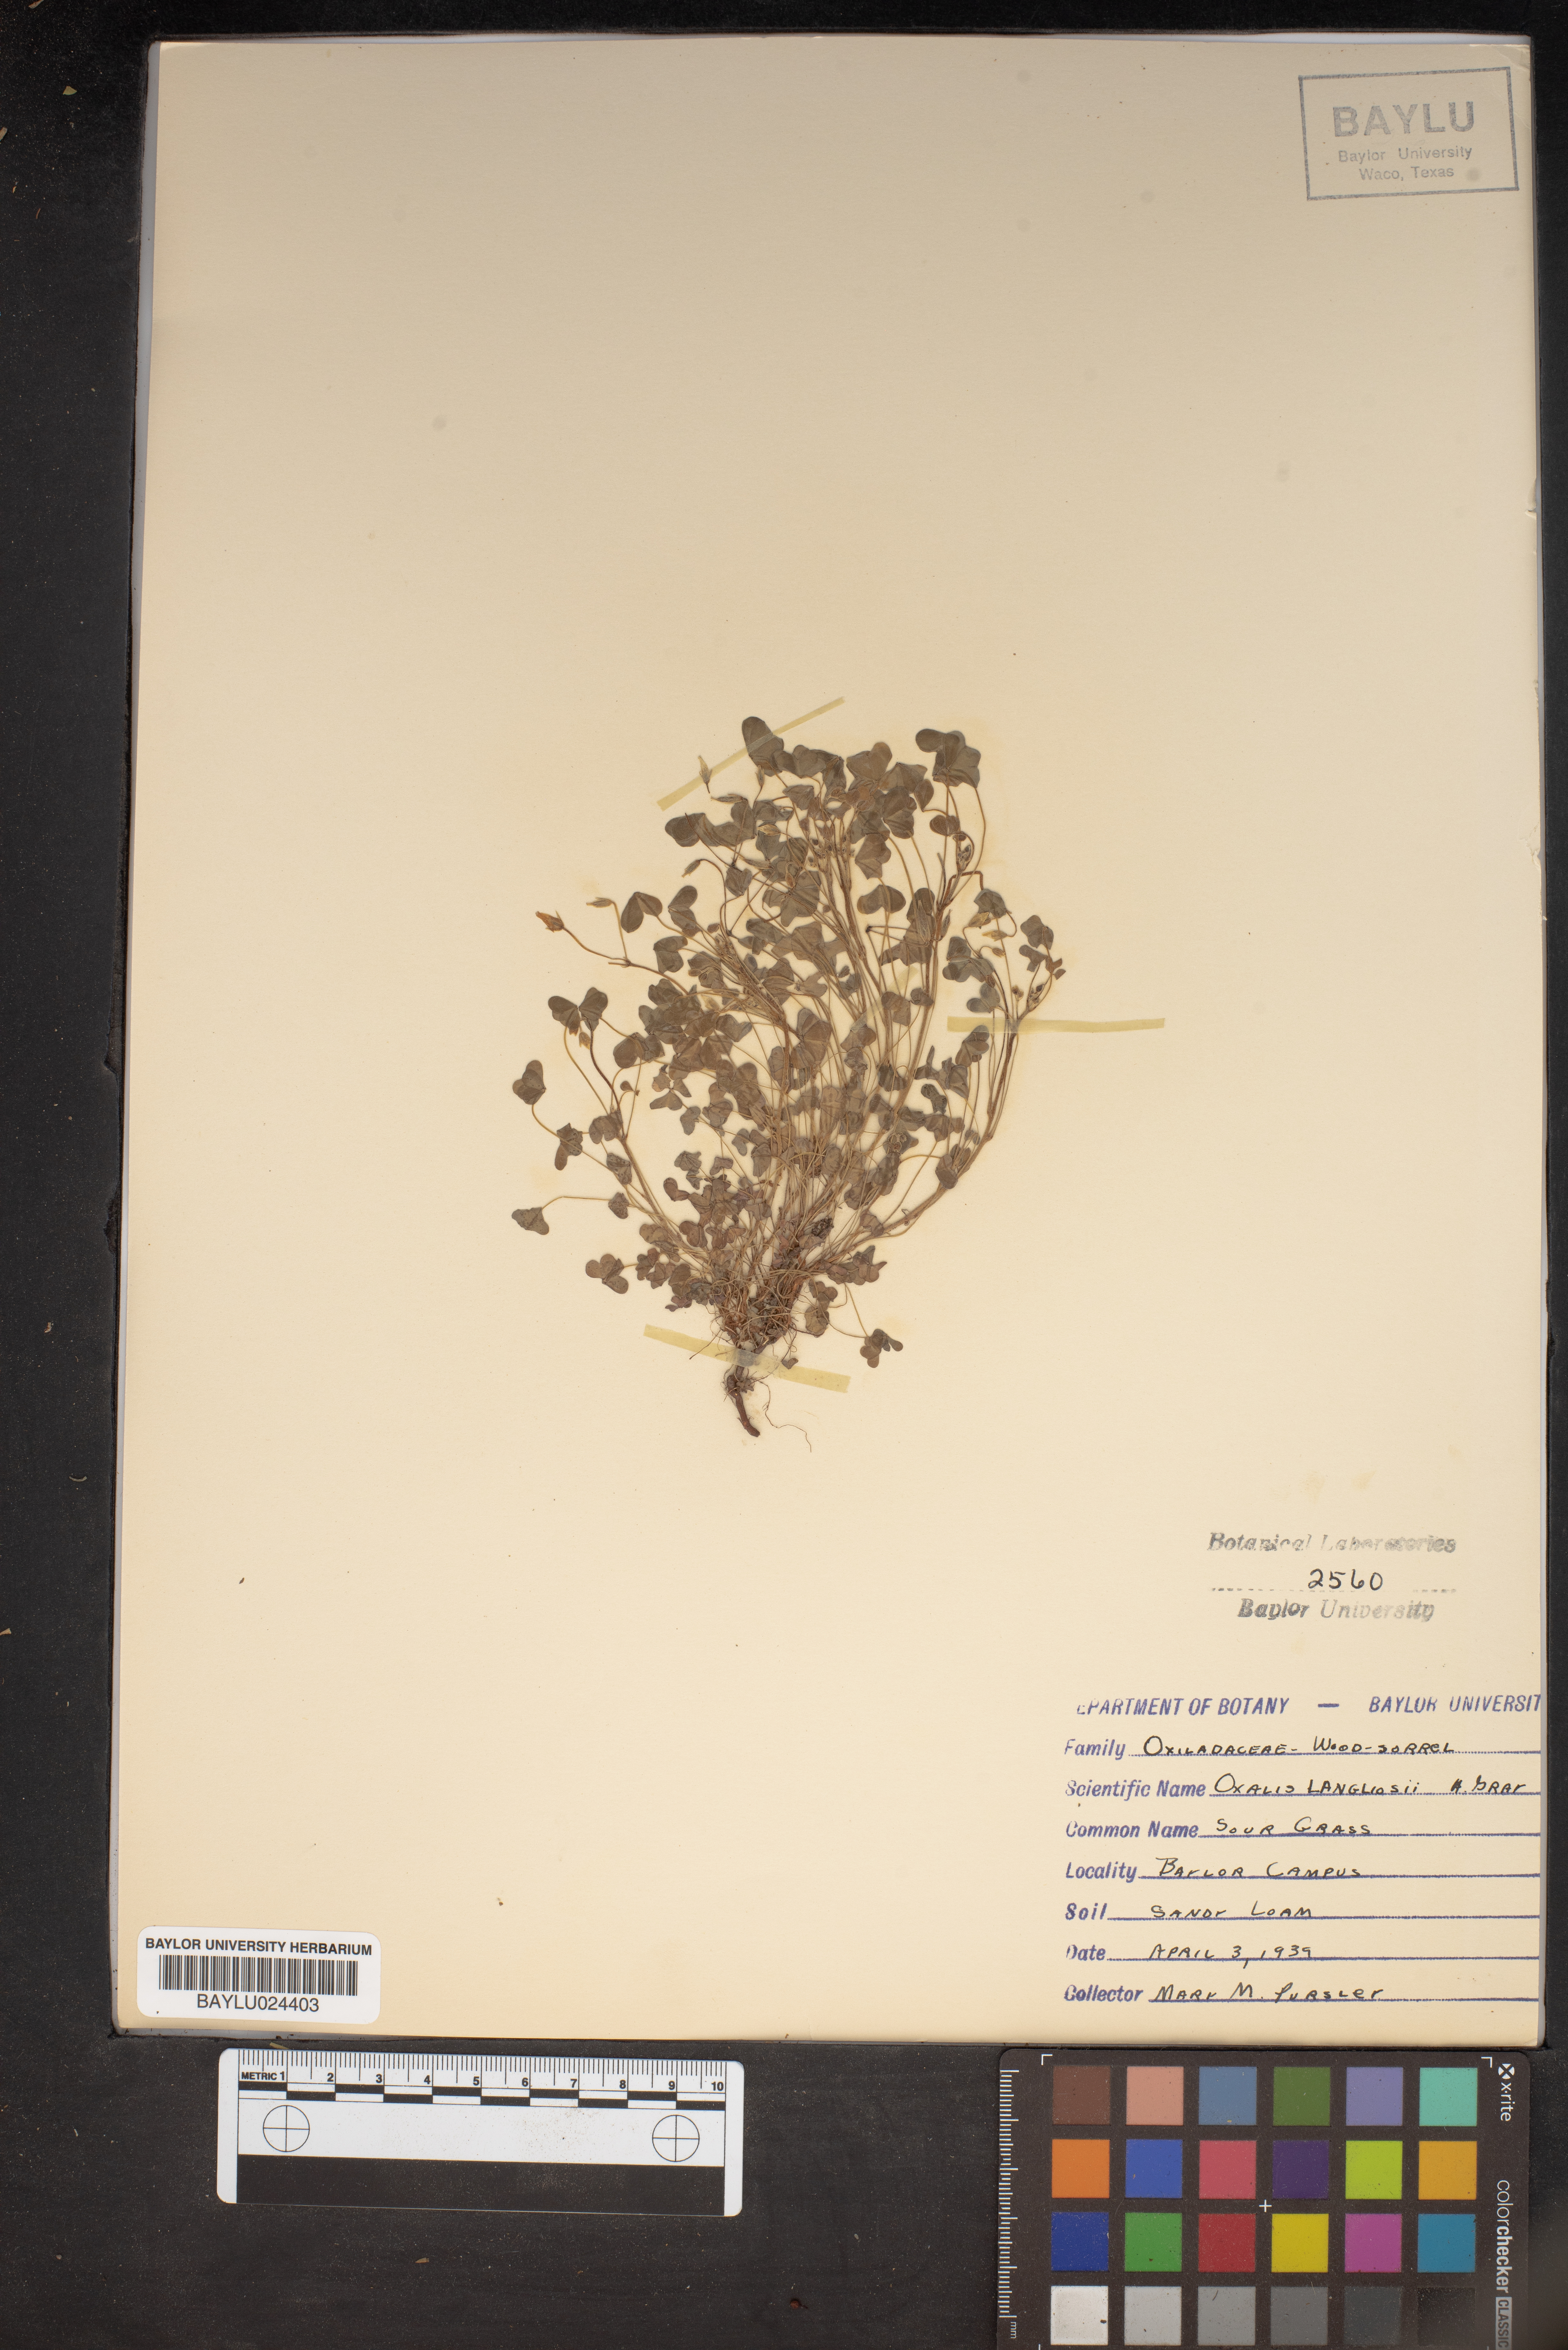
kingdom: Plantae
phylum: Tracheophyta
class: Magnoliopsida
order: Oxalidales
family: Oxalidaceae
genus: Oxalis
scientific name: Oxalis corniculata
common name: Procumbent yellow-sorrel
